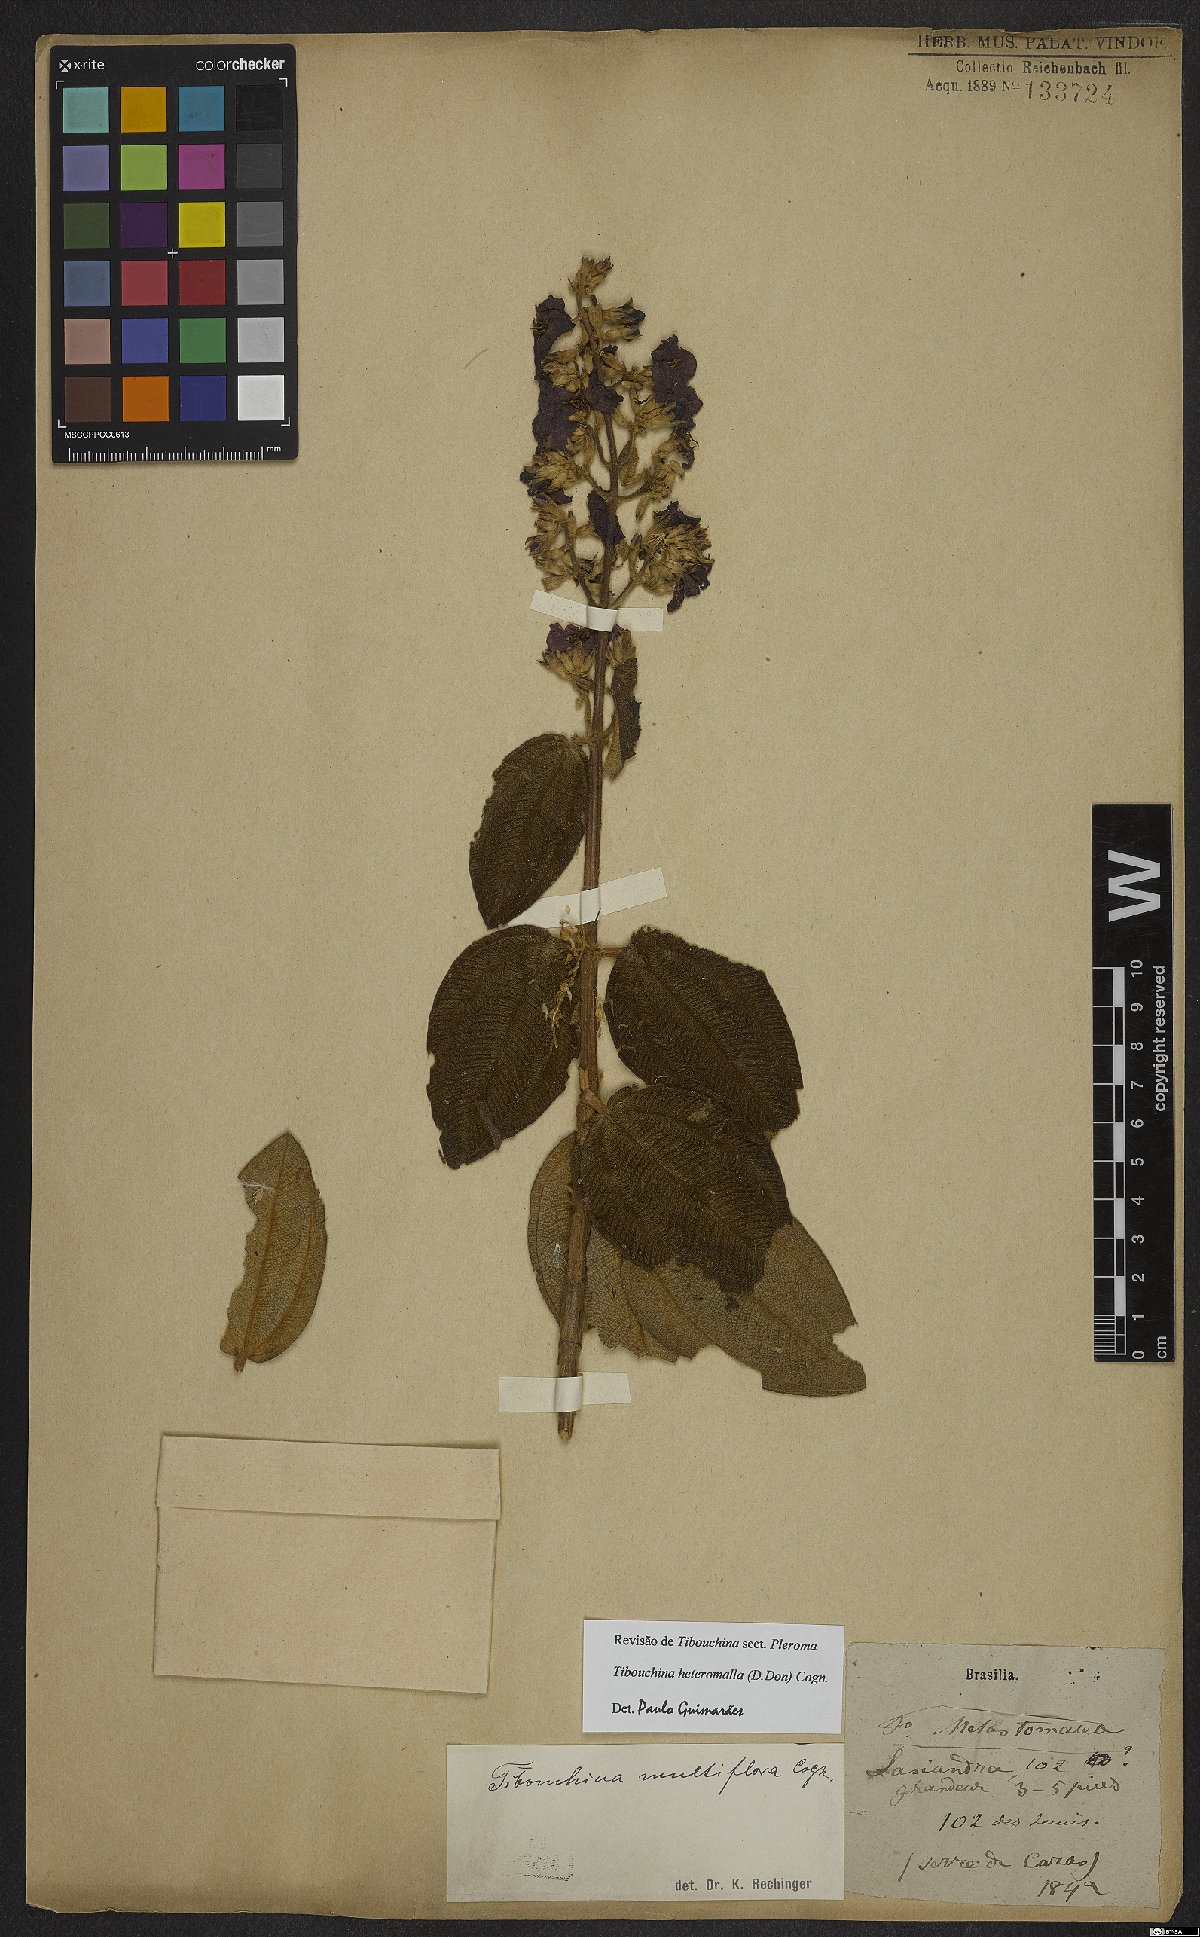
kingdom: Plantae
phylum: Tracheophyta
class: Magnoliopsida
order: Myrtales
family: Melastomataceae
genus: Pleroma
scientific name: Pleroma heteromallum
